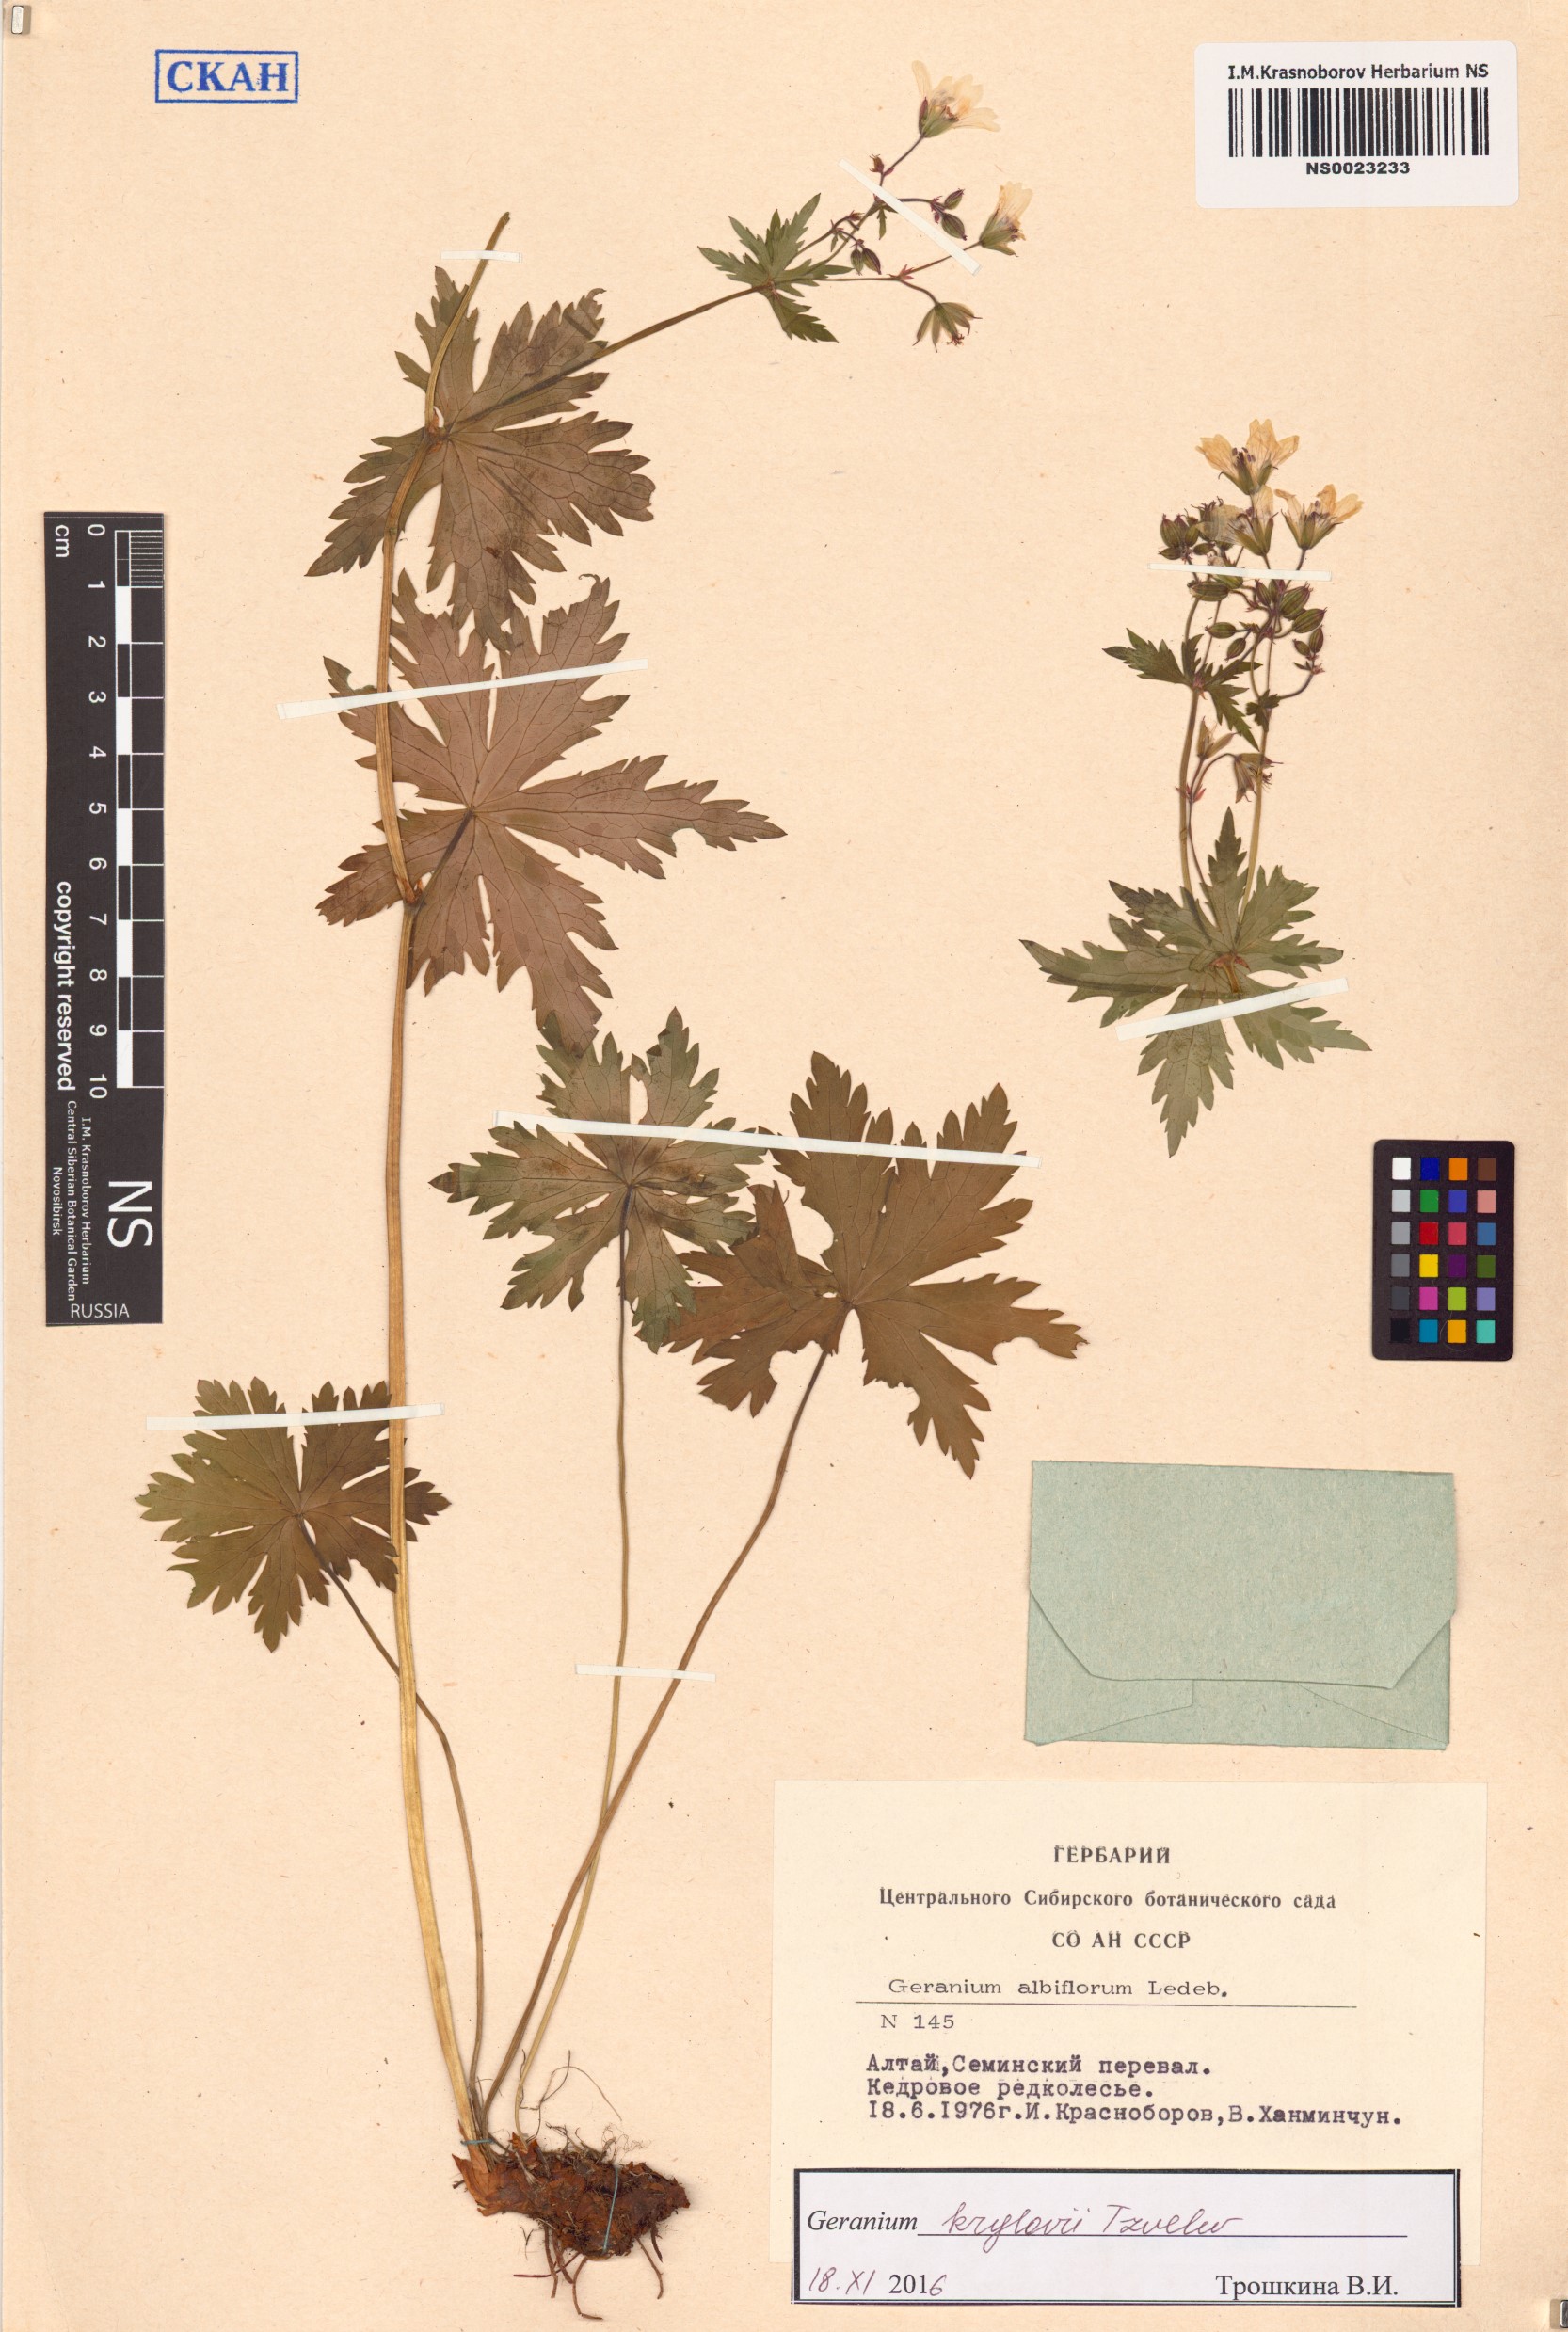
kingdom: Plantae
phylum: Tracheophyta
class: Magnoliopsida
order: Geraniales
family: Geraniaceae
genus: Geranium
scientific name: Geranium sylvaticum
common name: Wood crane's-bill
